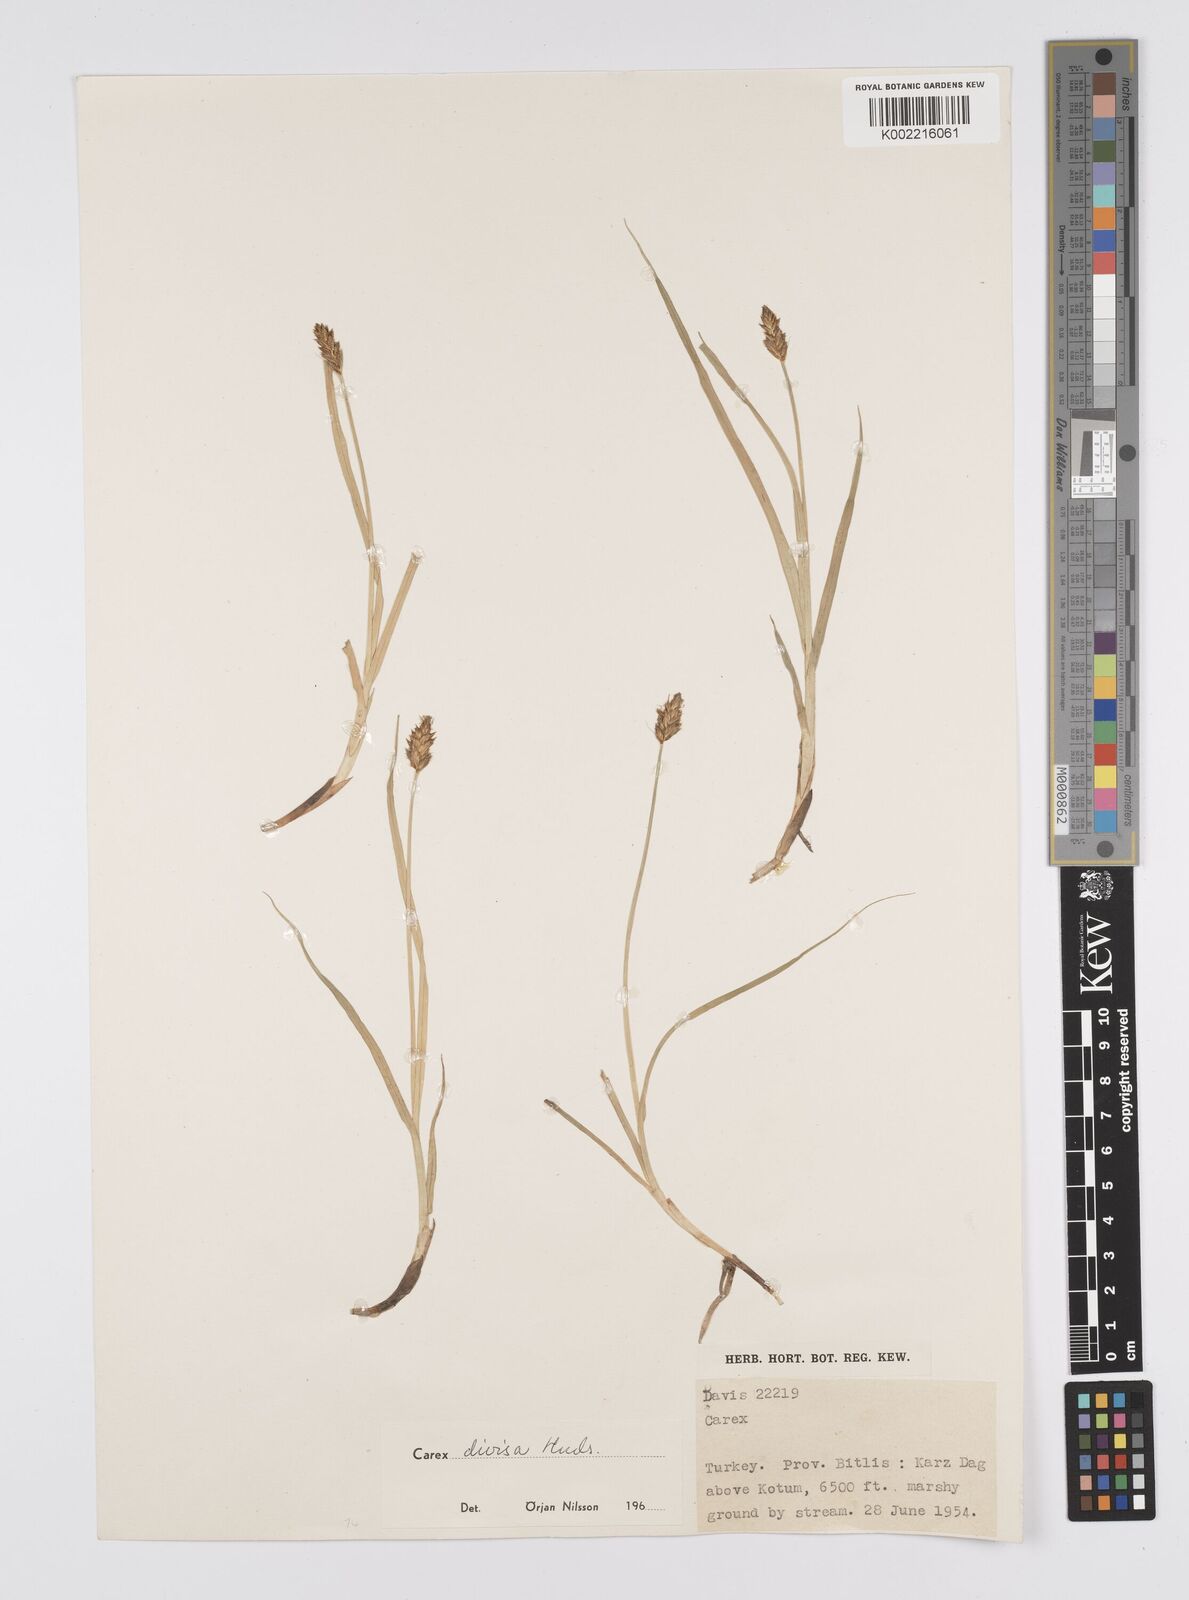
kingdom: Plantae
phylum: Tracheophyta
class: Liliopsida
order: Poales
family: Cyperaceae
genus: Carex
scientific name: Carex divisa
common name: Divided sedge
